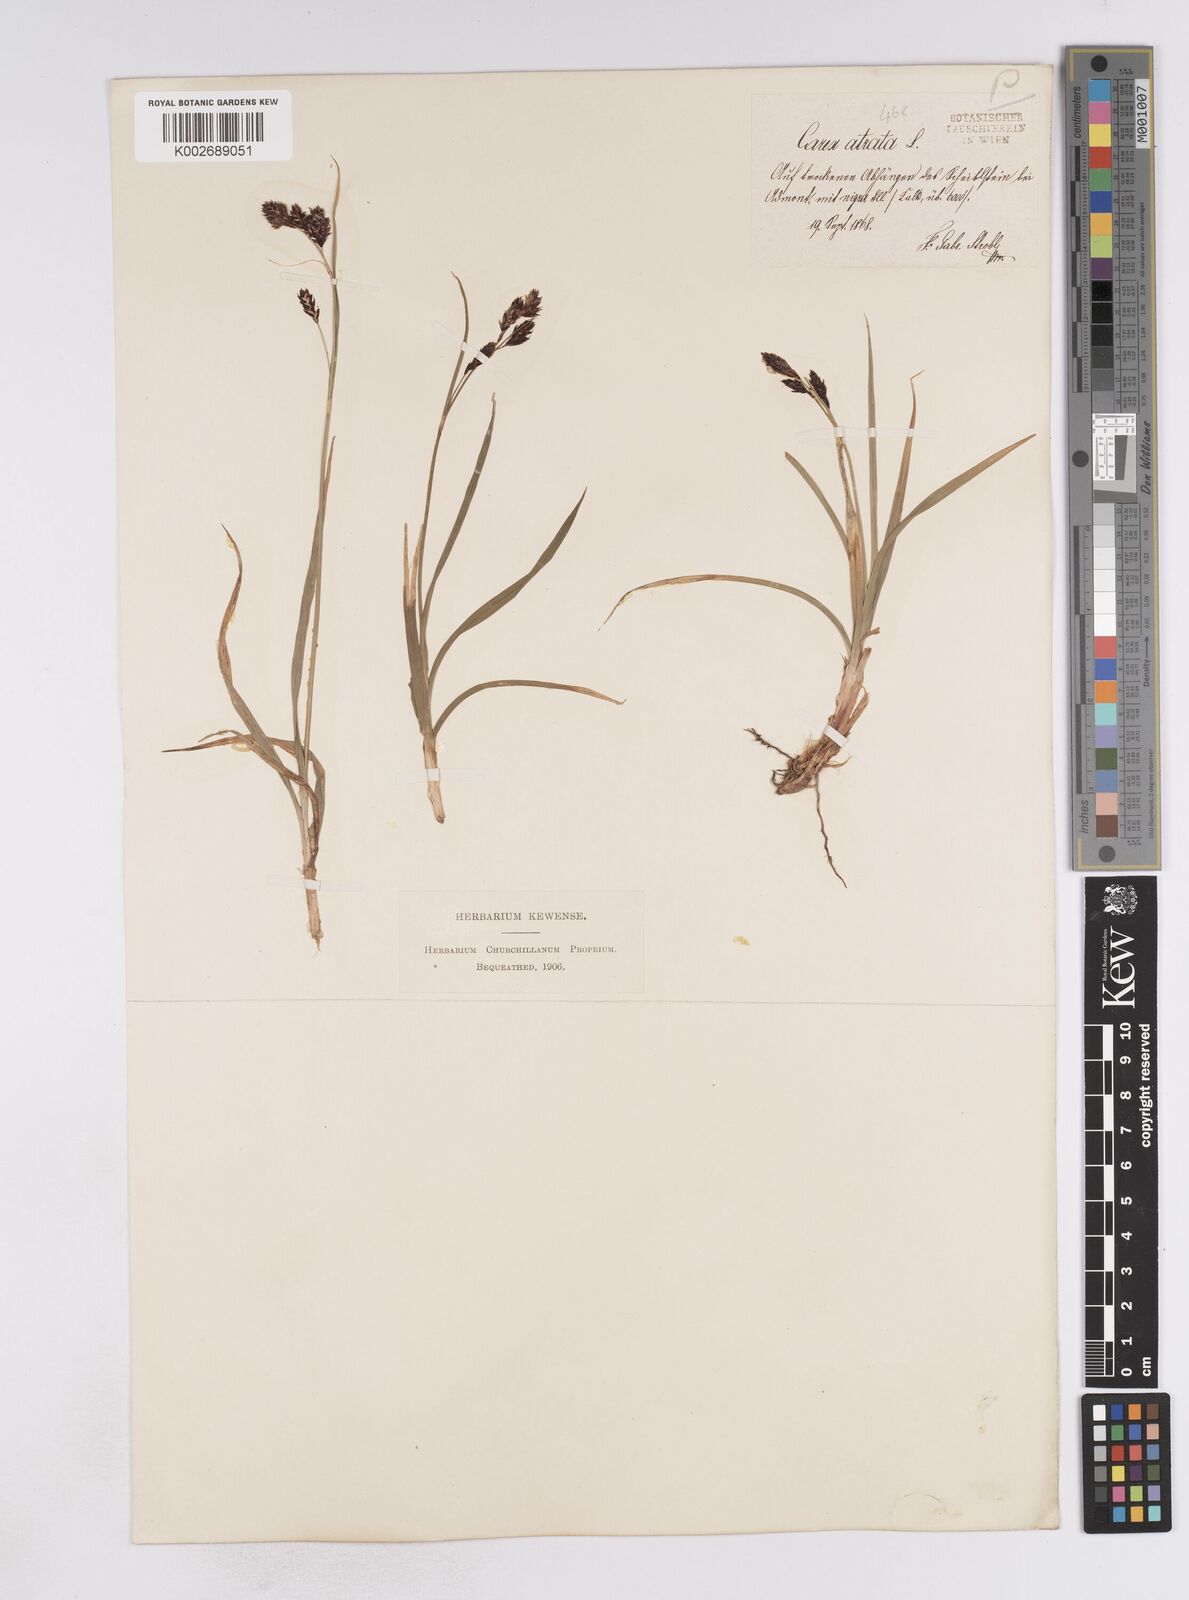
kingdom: Plantae
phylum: Tracheophyta
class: Liliopsida
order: Poales
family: Cyperaceae
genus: Carex
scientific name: Carex atrata
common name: Black alpine sedge
